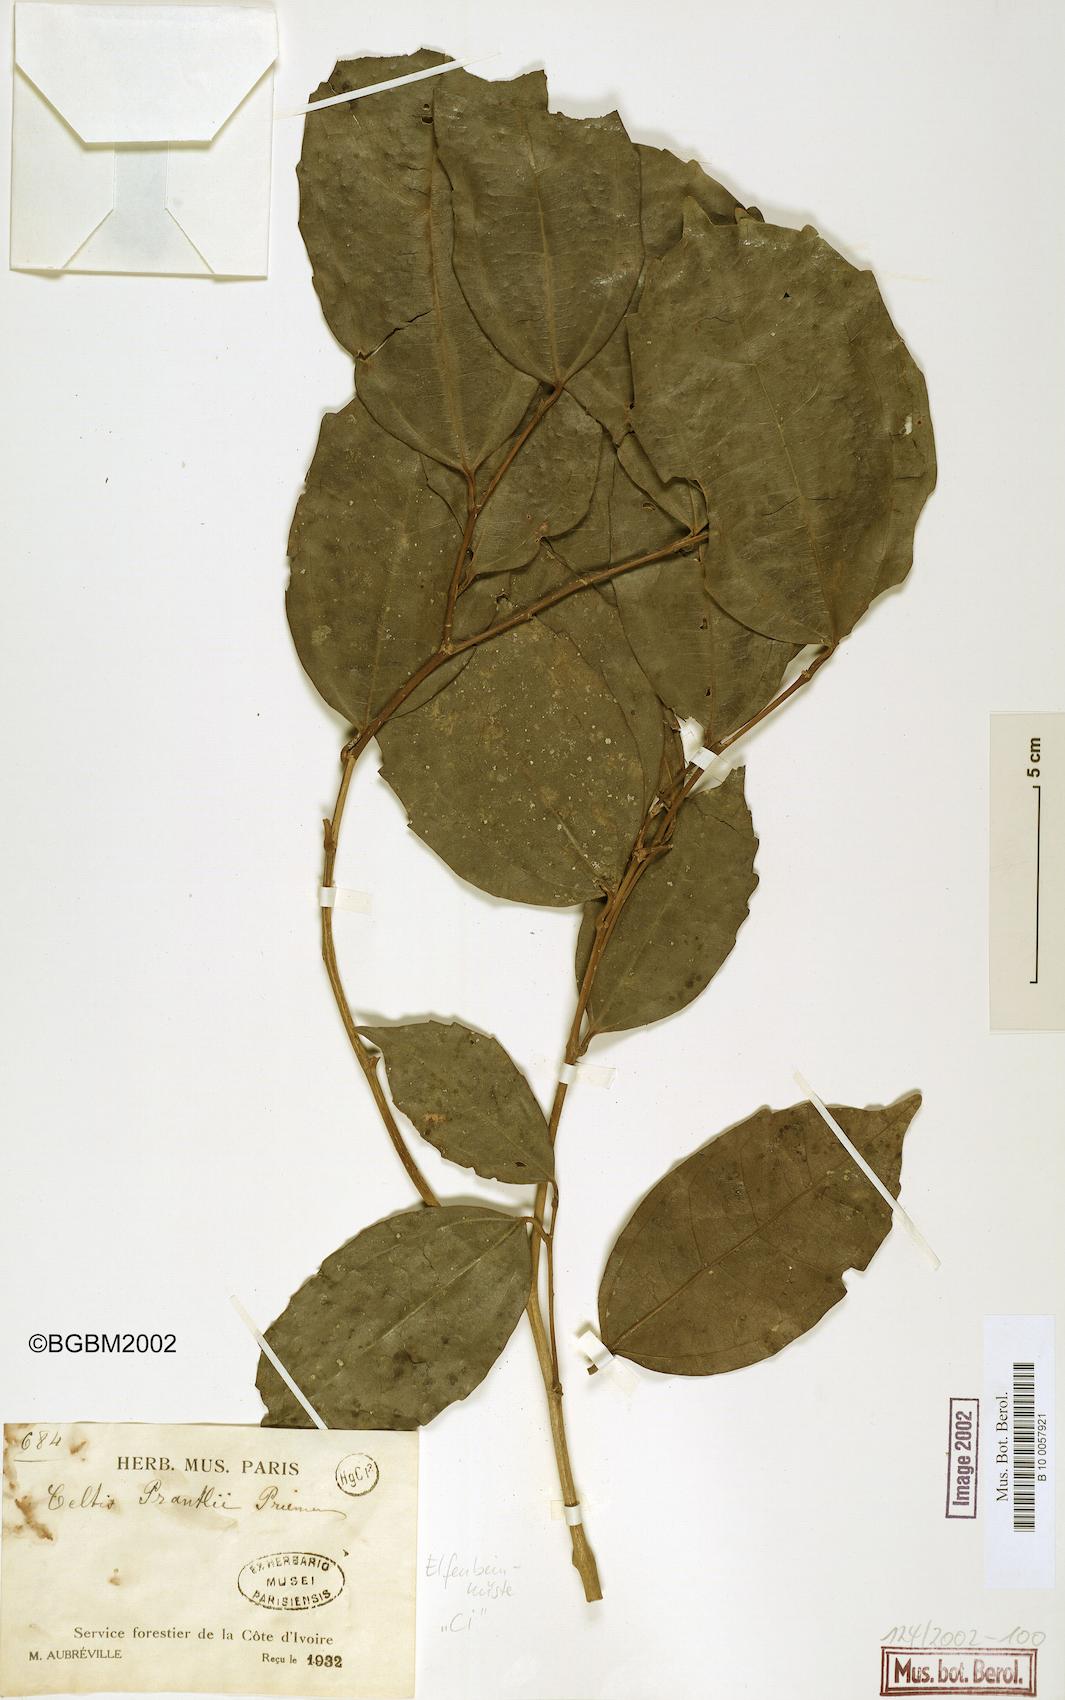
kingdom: Plantae
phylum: Tracheophyta
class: Magnoliopsida
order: Rosales
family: Cannabaceae
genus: Celtis
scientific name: Celtis philippensis
